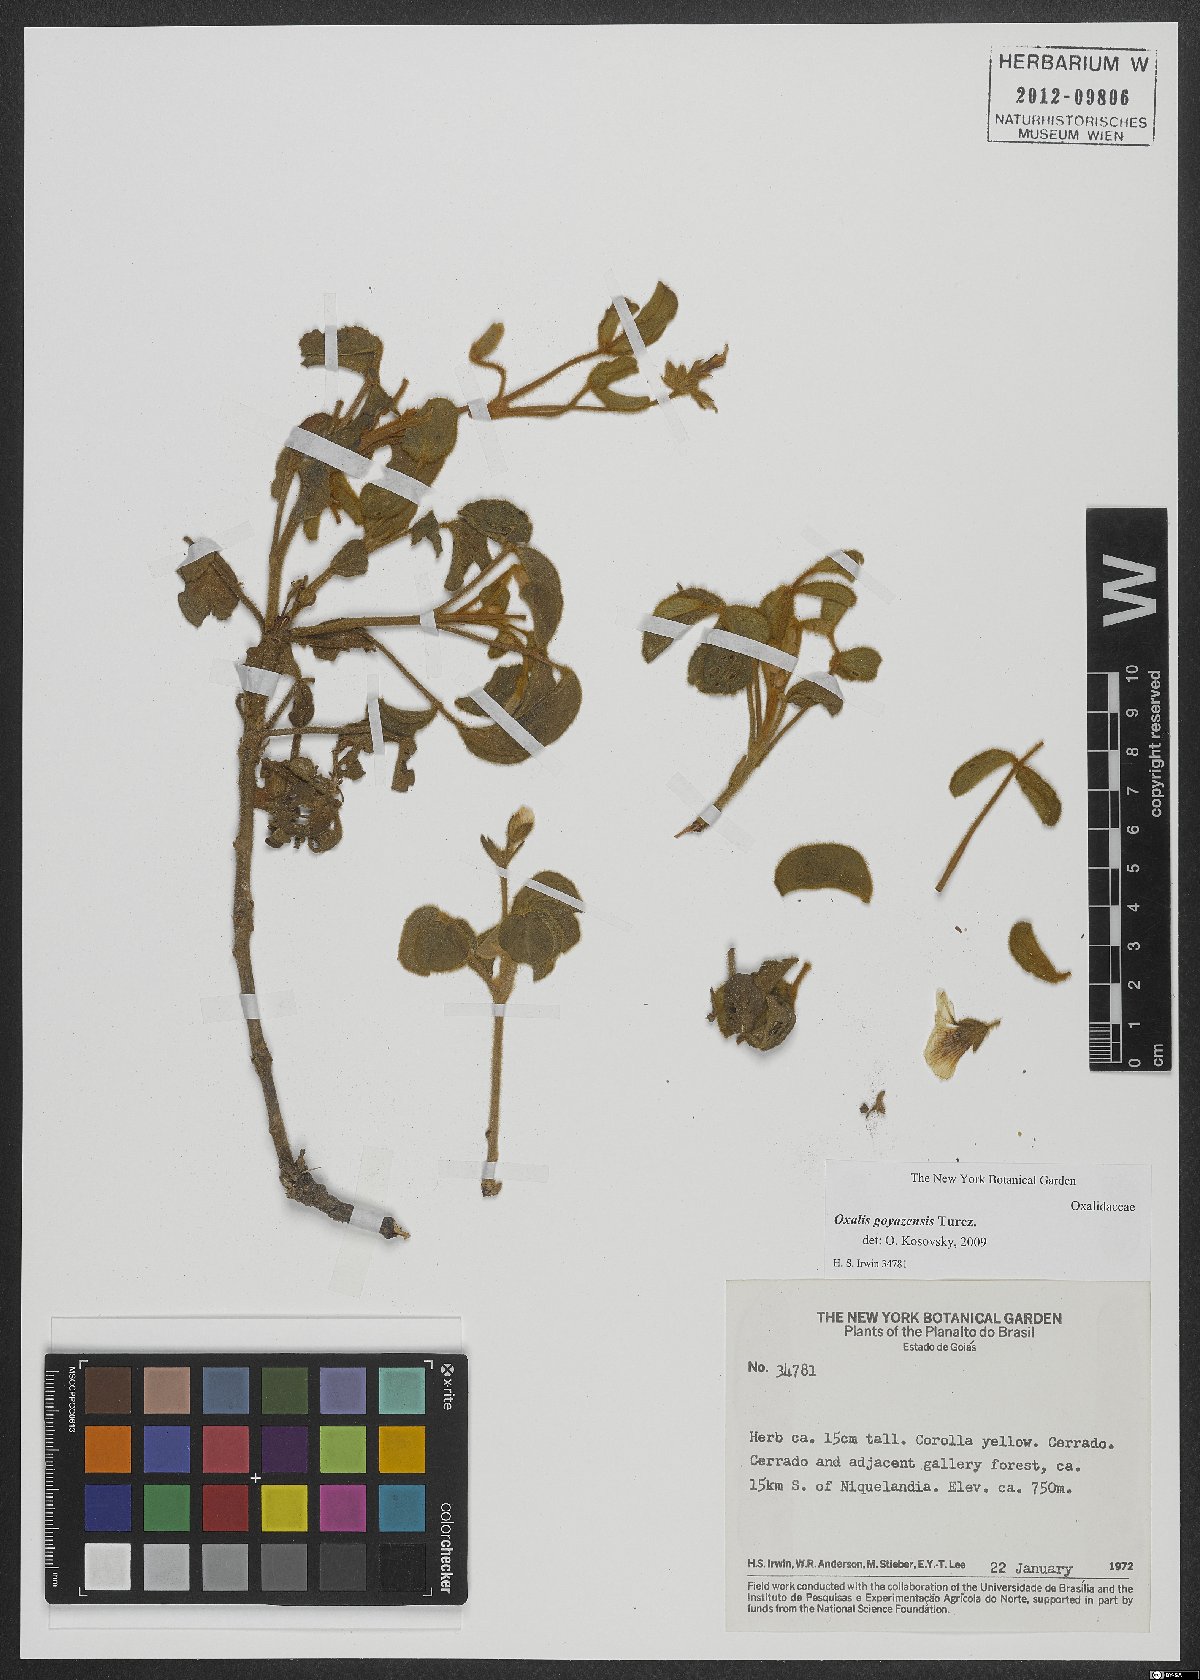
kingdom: Plantae
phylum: Tracheophyta
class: Magnoliopsida
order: Oxalidales
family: Oxalidaceae
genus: Oxalis
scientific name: Oxalis goyazensis
